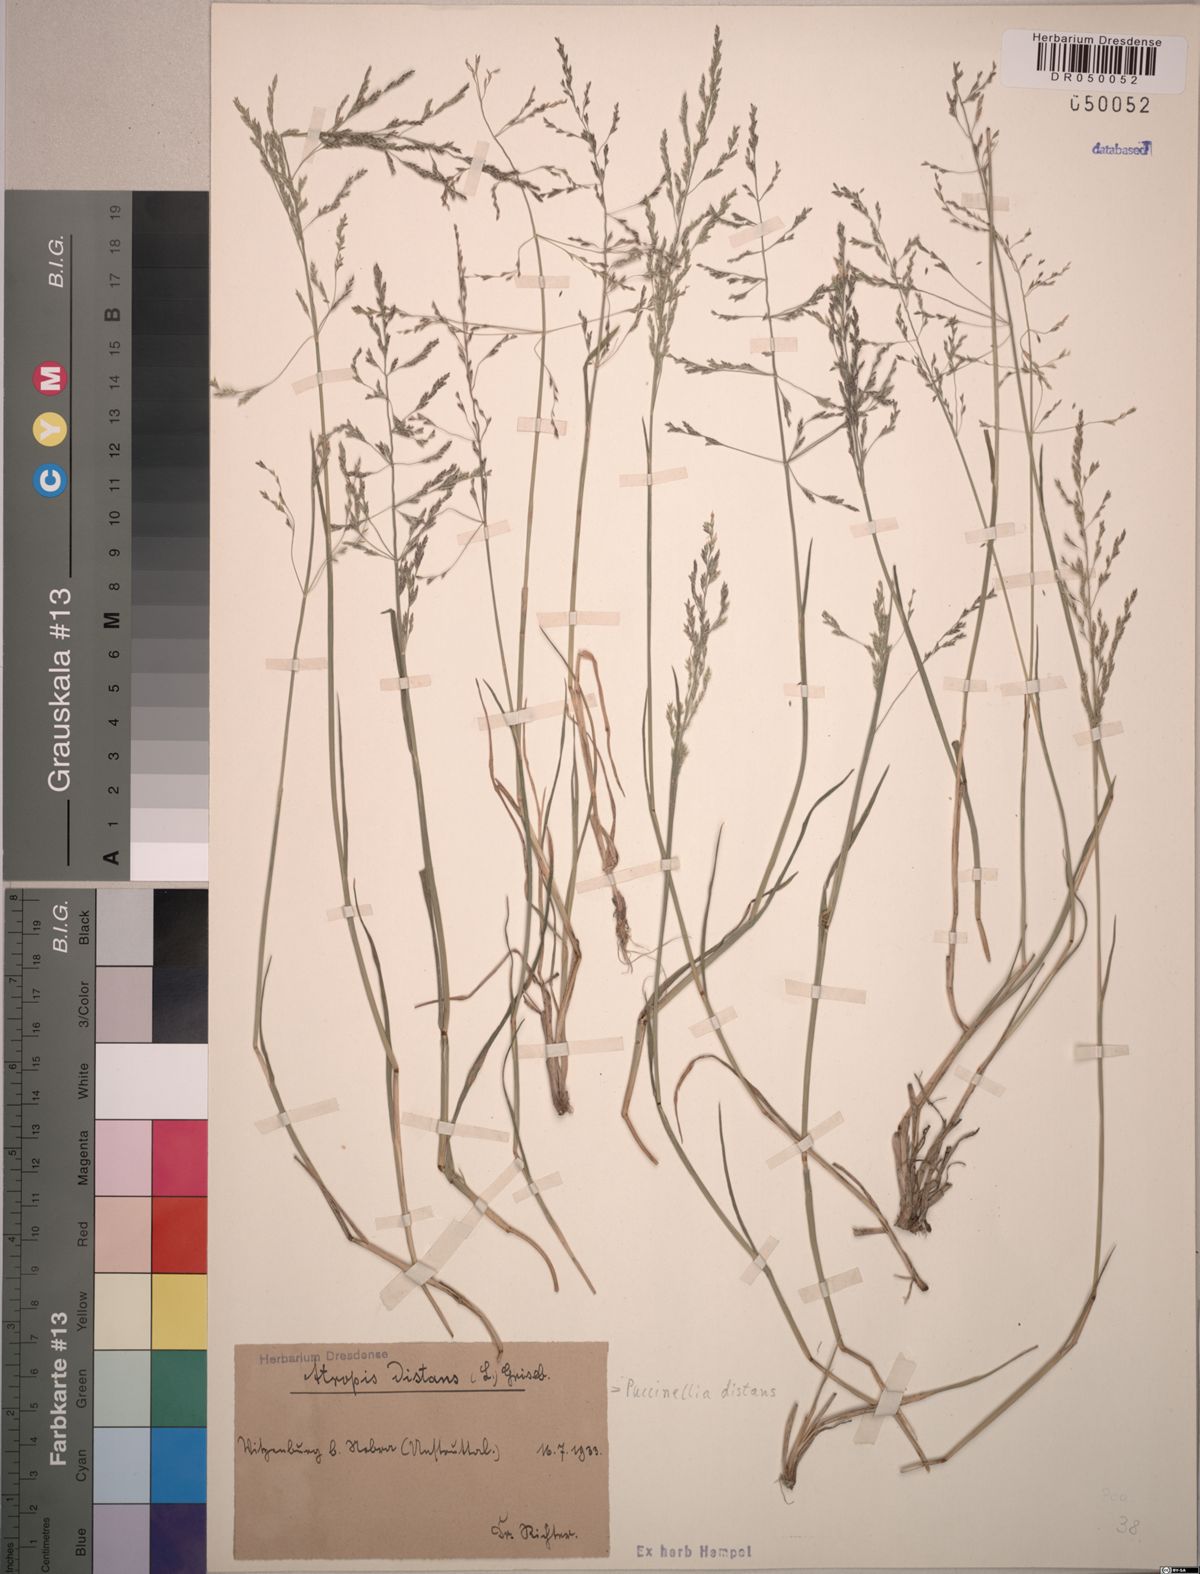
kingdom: Plantae
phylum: Tracheophyta
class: Liliopsida
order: Poales
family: Poaceae
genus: Puccinellia
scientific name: Puccinellia distans
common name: Weeping alkaligrass
